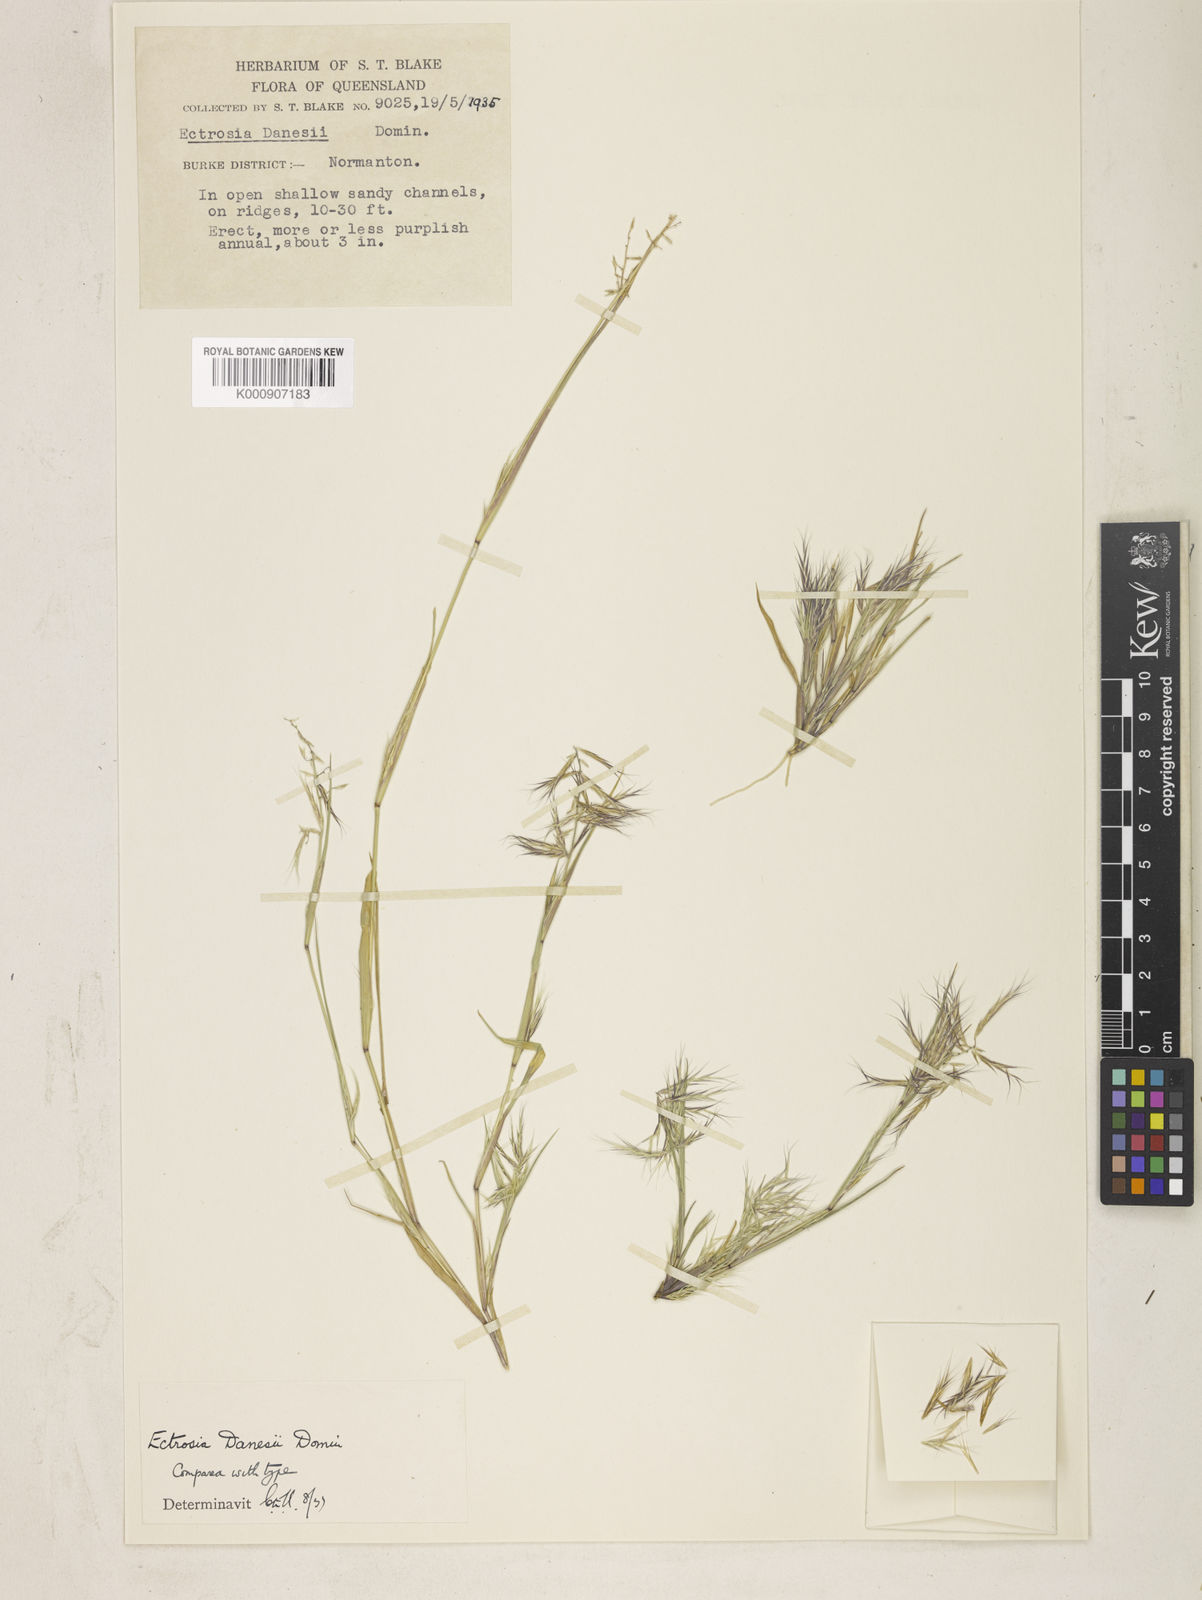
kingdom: Plantae
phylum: Tracheophyta
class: Liliopsida
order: Poales
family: Poaceae
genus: Eragrostis
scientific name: Eragrostis danesii
